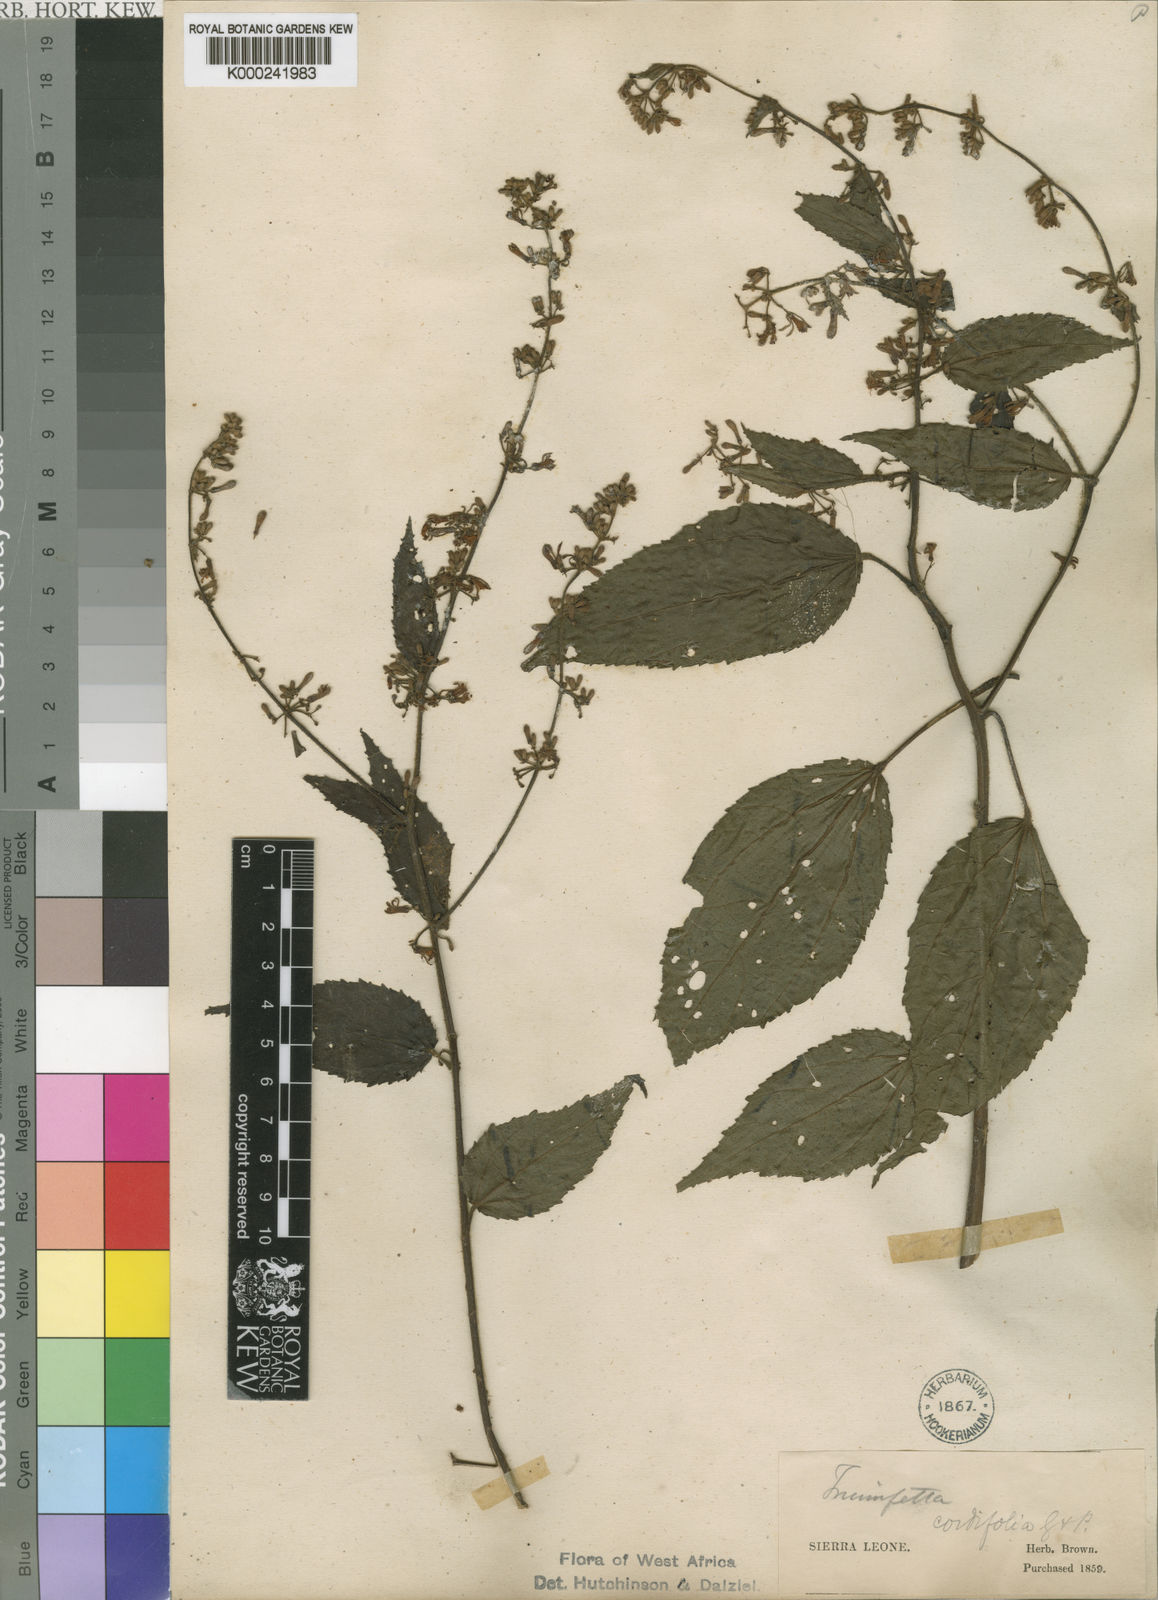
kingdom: Plantae
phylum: Tracheophyta
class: Magnoliopsida
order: Malvales
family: Malvaceae
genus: Triumfetta
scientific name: Triumfetta
